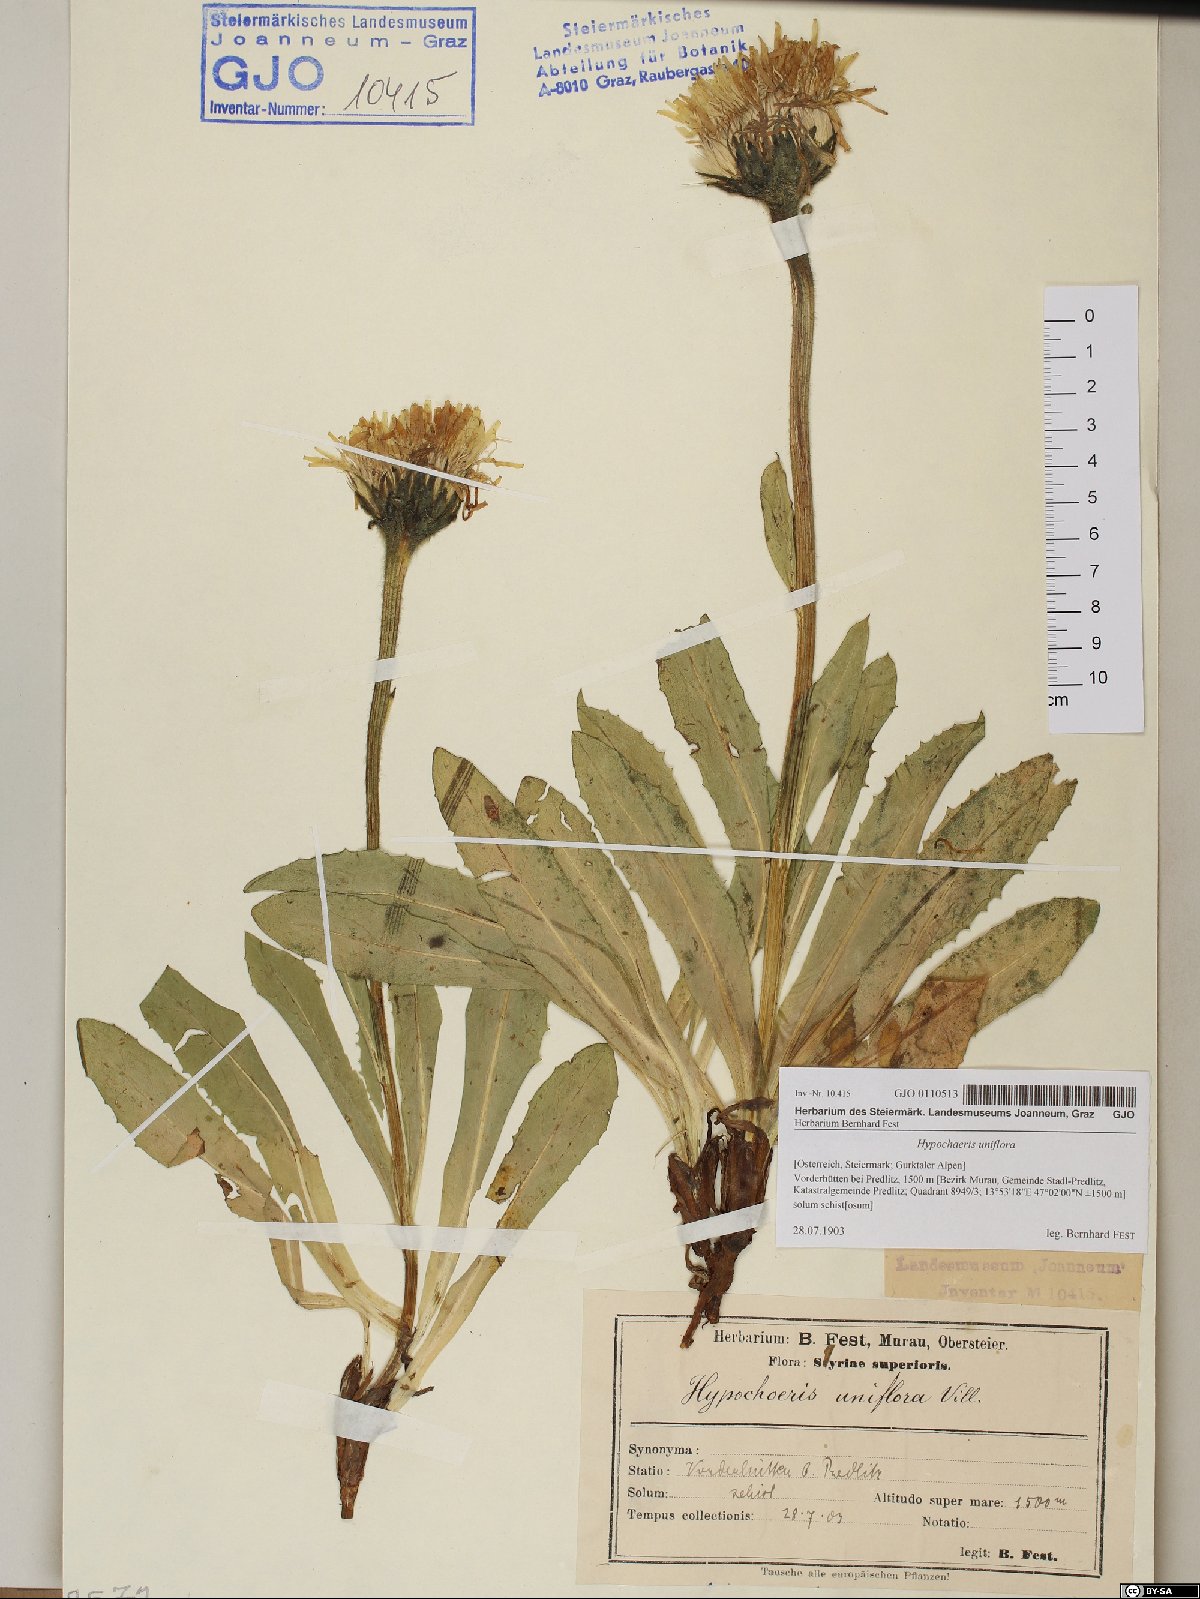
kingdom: Plantae
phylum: Tracheophyta
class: Magnoliopsida
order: Asterales
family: Asteraceae
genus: Trommsdorffia
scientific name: Trommsdorffia uniflora
